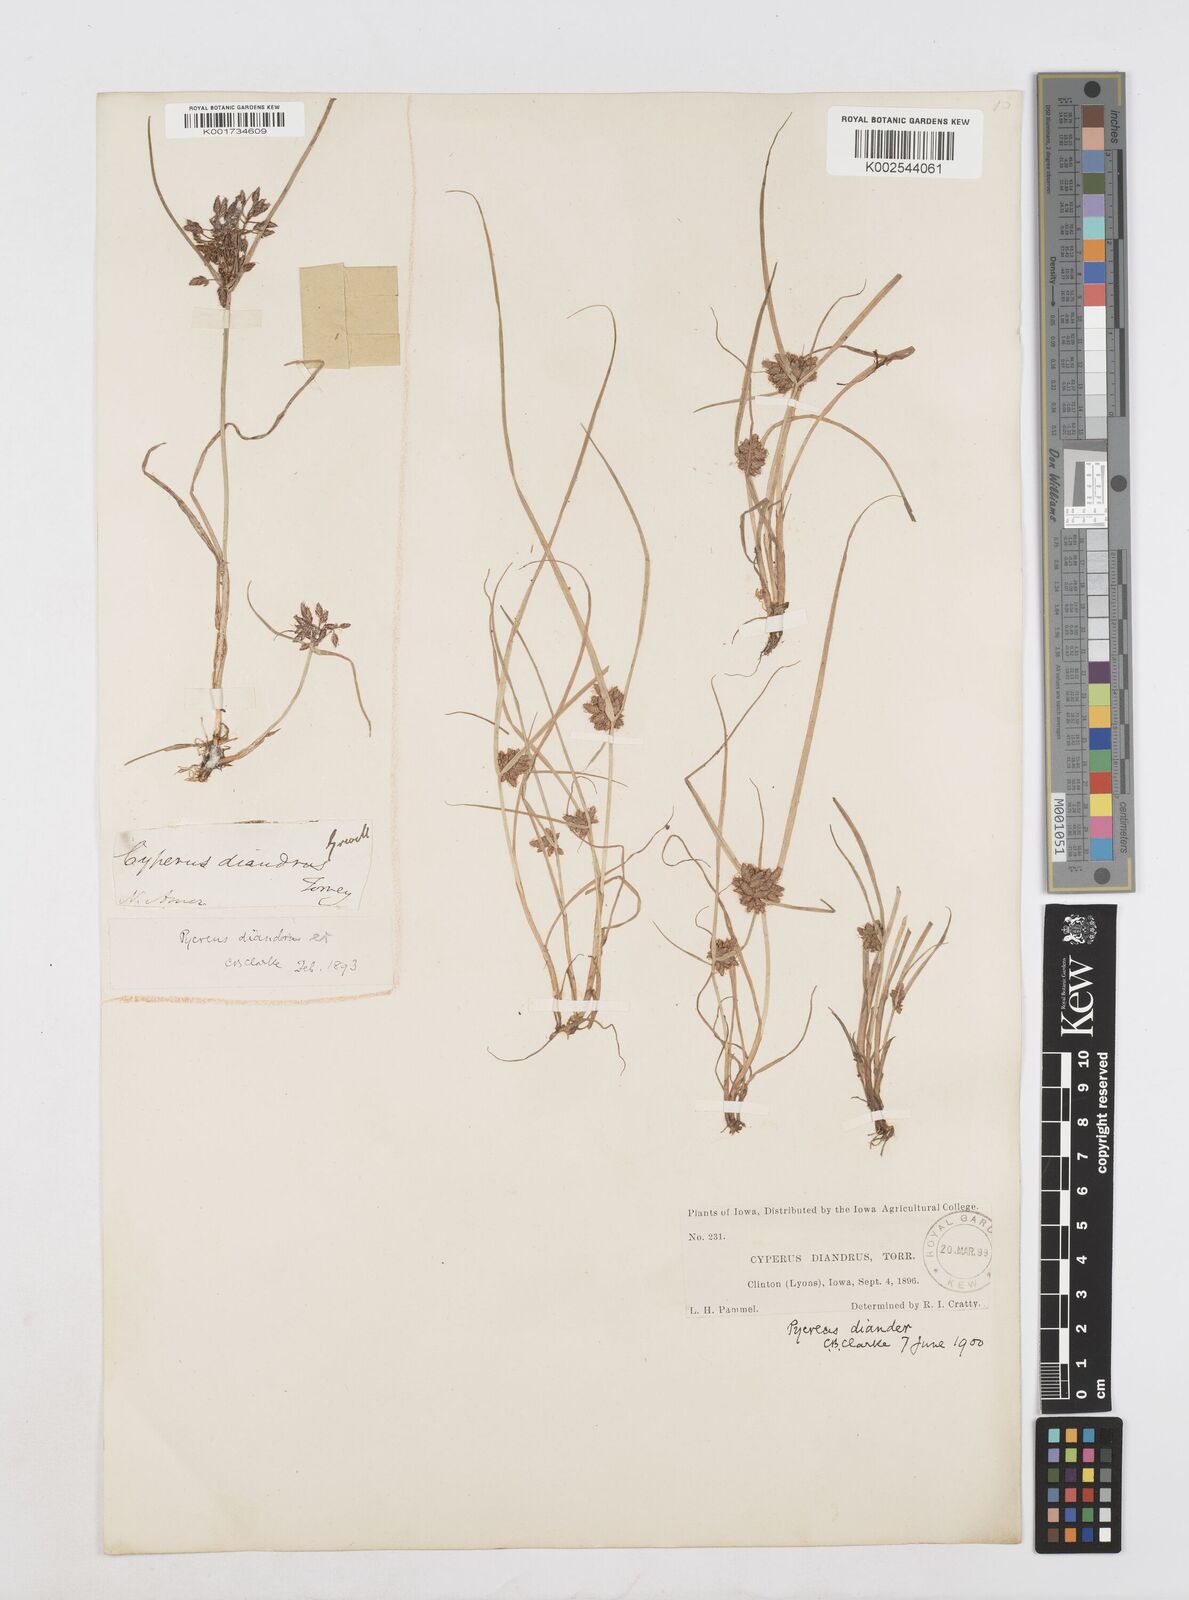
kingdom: Plantae
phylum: Tracheophyta
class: Liliopsida
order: Poales
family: Cyperaceae
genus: Cyperus
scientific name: Cyperus diandrus
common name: Low cyperus
